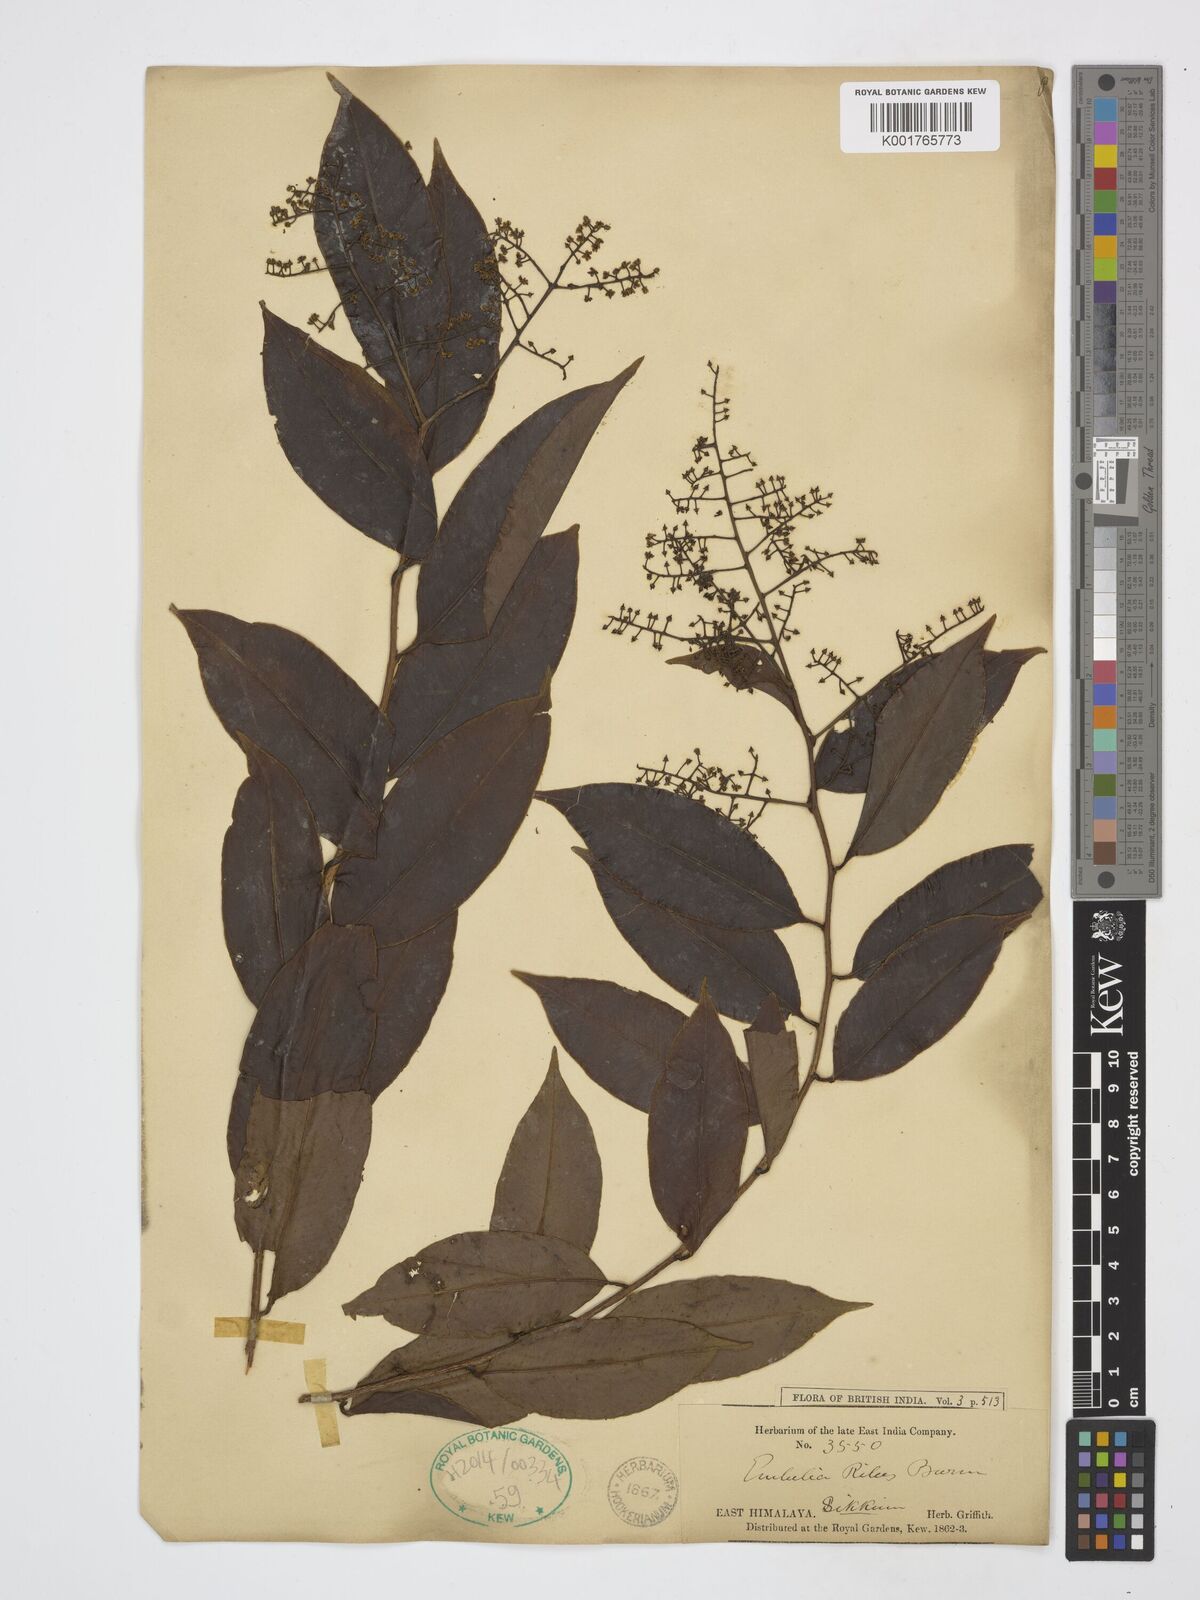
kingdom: Plantae
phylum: Tracheophyta
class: Magnoliopsida
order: Ericales
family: Primulaceae
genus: Embelia
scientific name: Embelia ribes
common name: Vidanga
